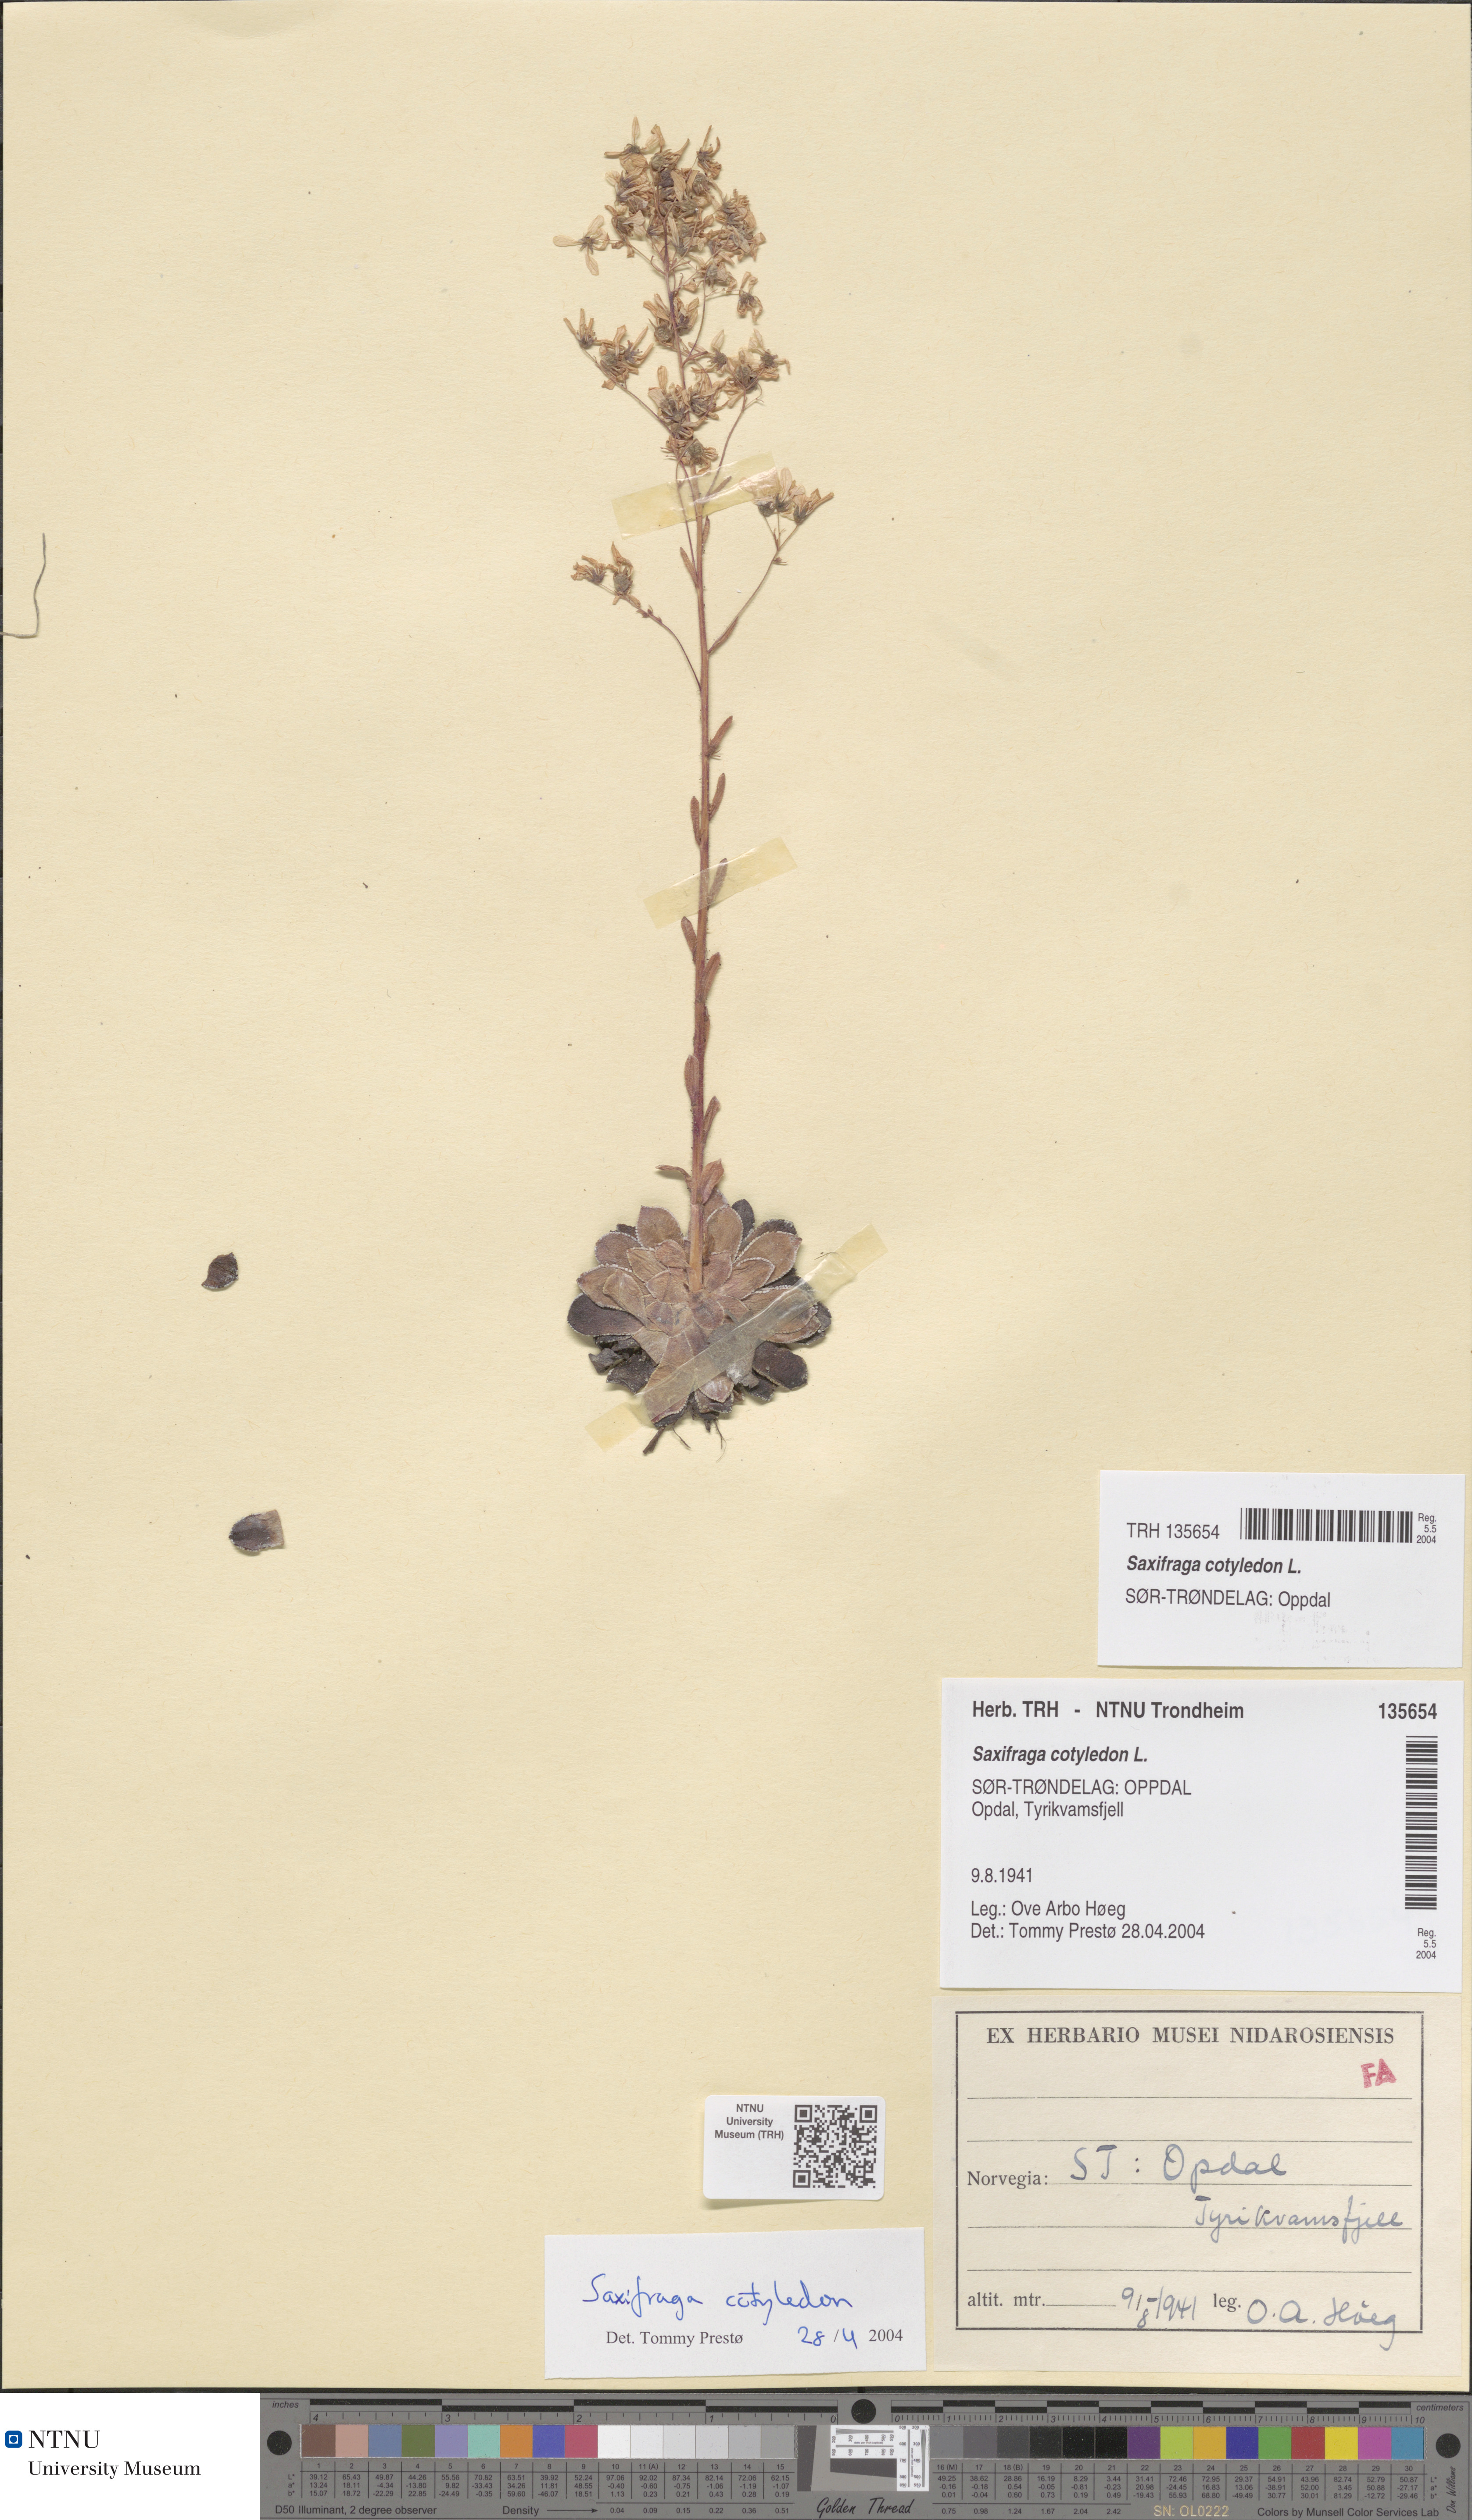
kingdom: Plantae
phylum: Tracheophyta
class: Magnoliopsida
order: Saxifragales
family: Saxifragaceae
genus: Saxifraga
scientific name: Saxifraga cotyledon
